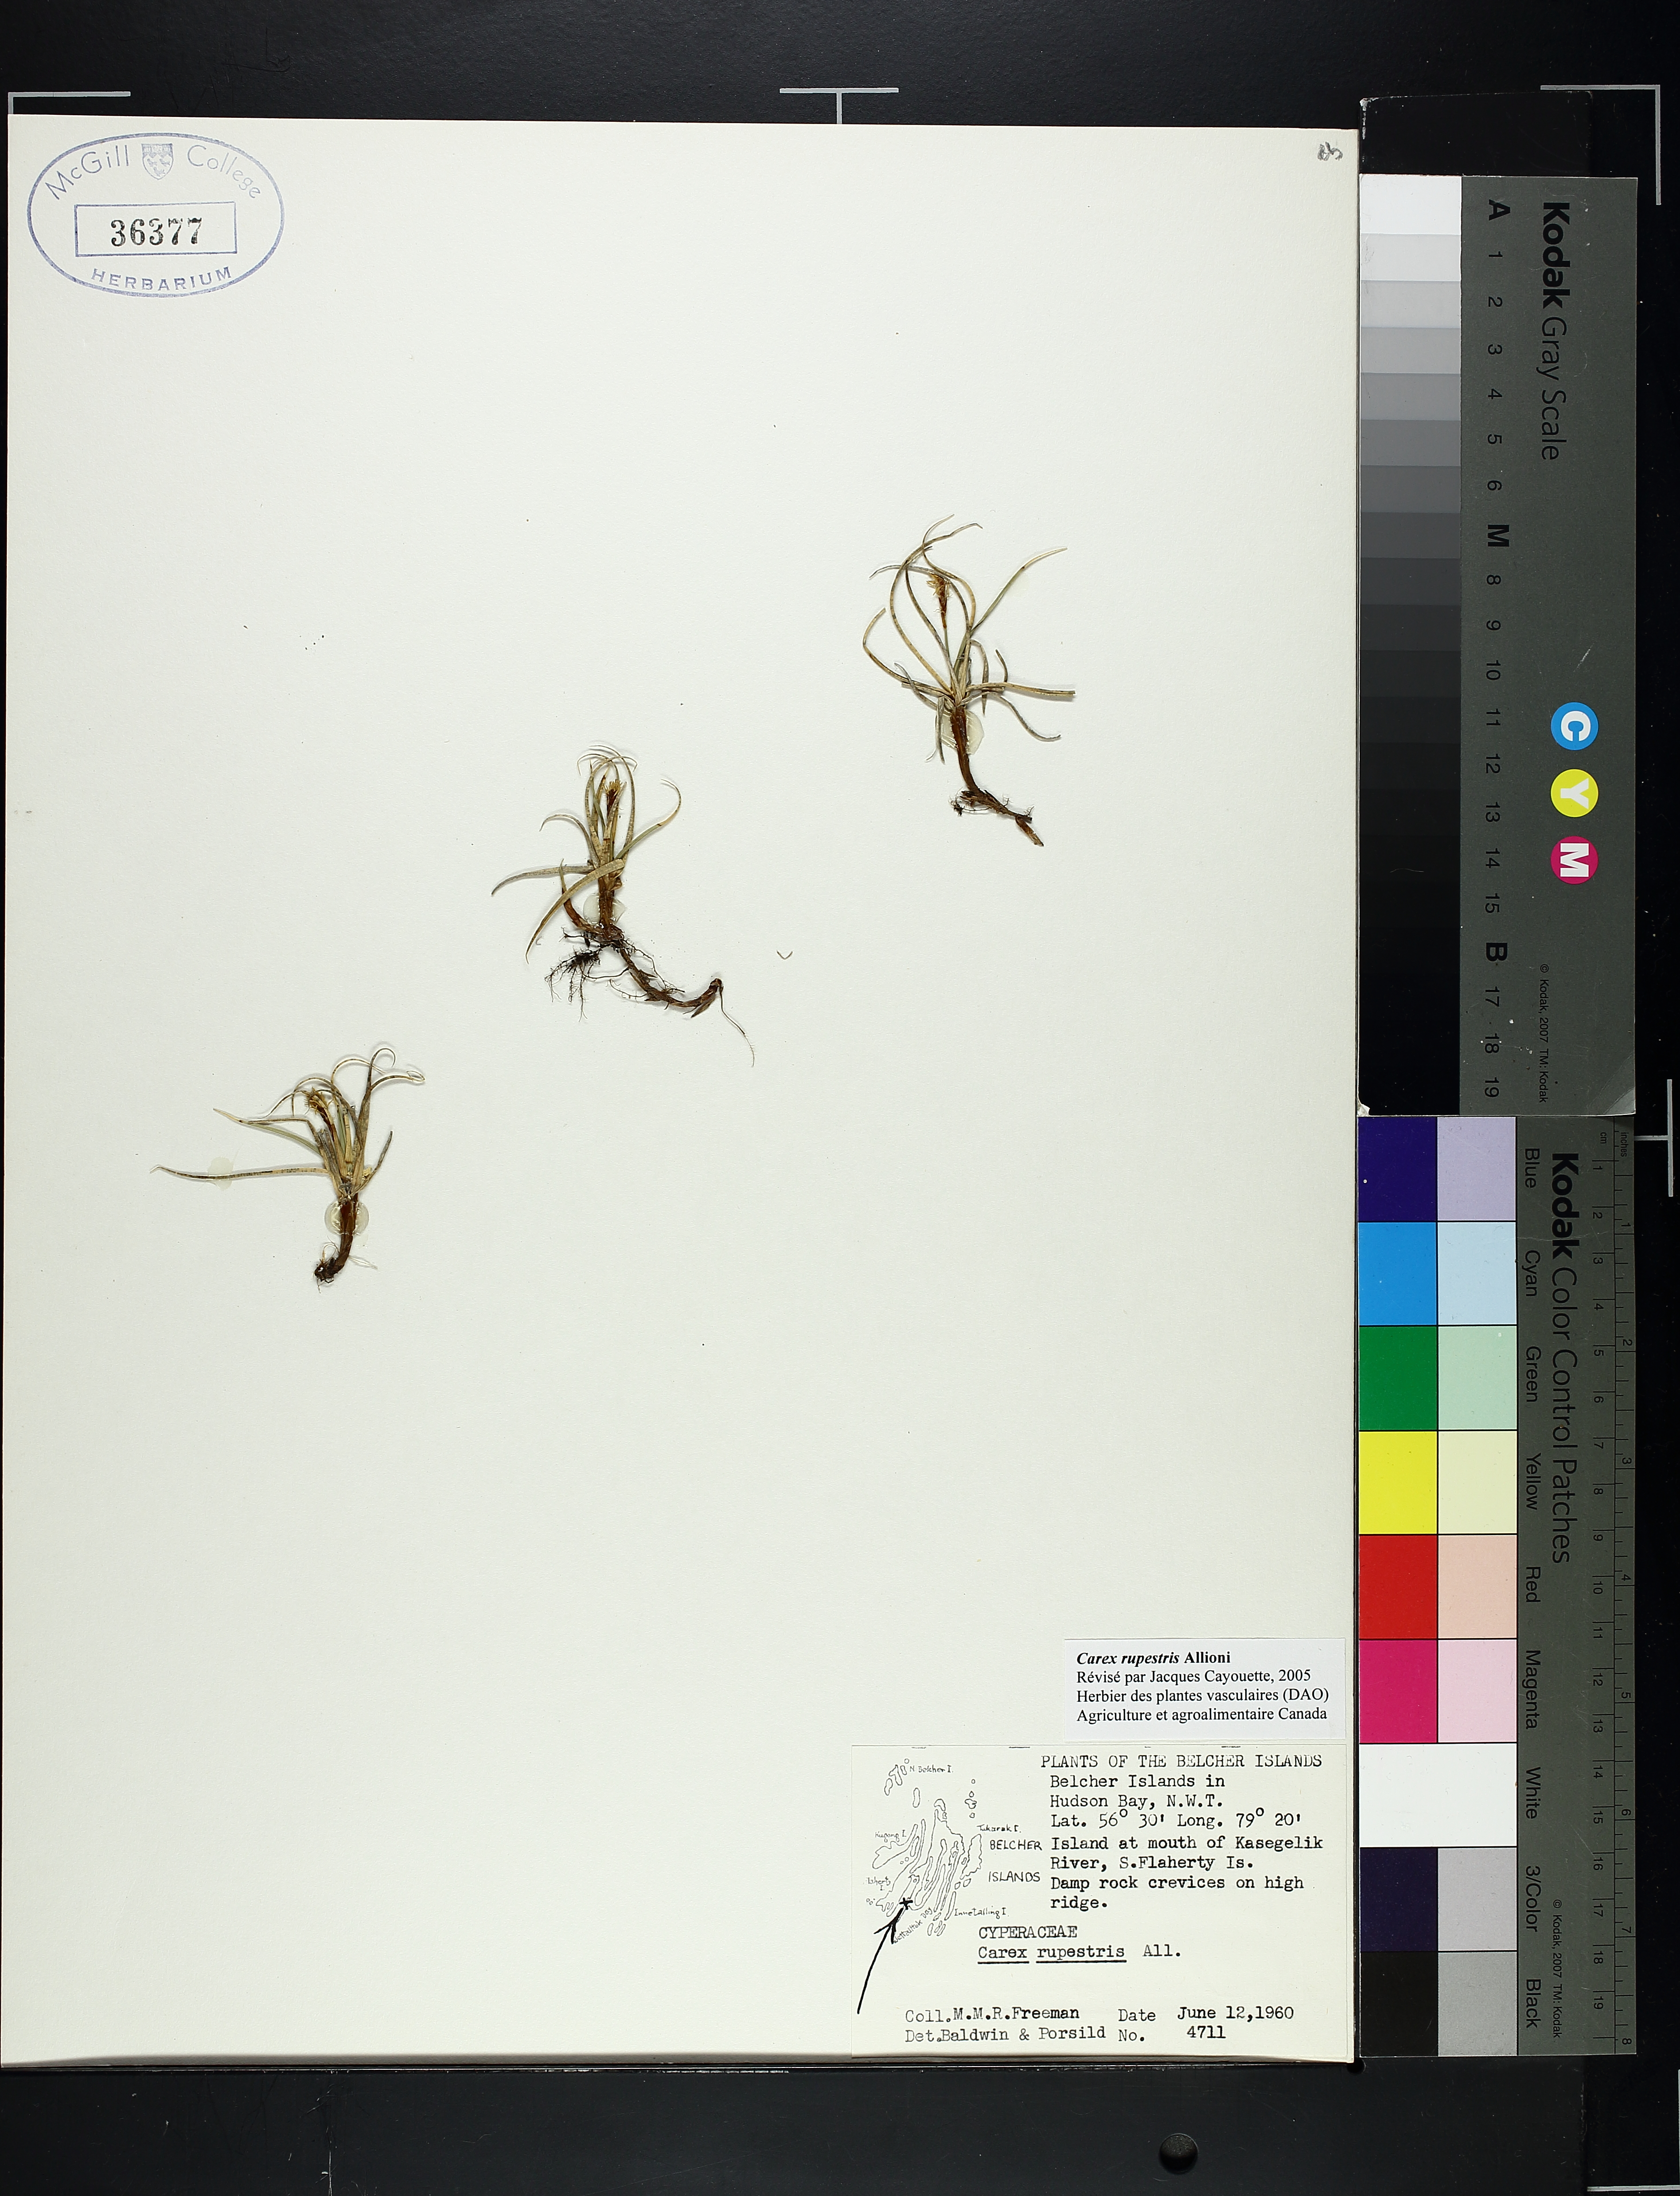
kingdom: Plantae
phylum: Tracheophyta
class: Liliopsida
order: Poales
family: Cyperaceae
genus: Carex
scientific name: Carex rupestris
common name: Rock sedge
